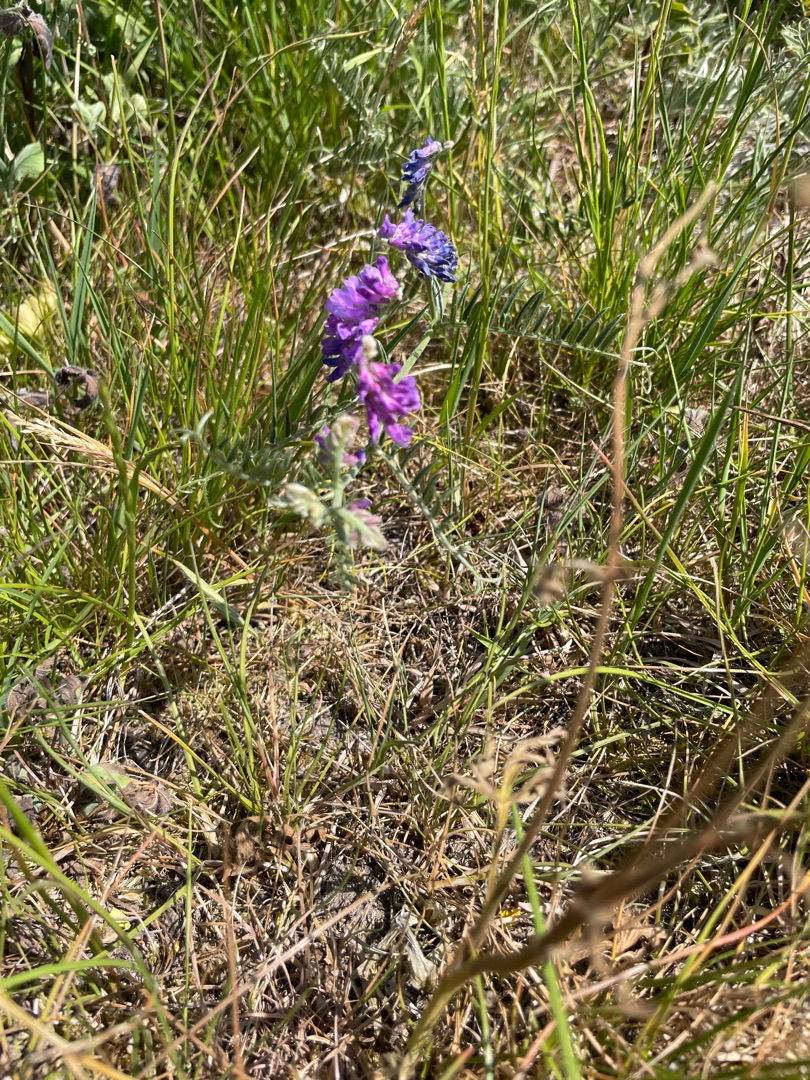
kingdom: Plantae
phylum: Tracheophyta
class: Magnoliopsida
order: Fabales
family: Fabaceae
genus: Vicia
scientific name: Vicia cracca
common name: Muse-vikke
